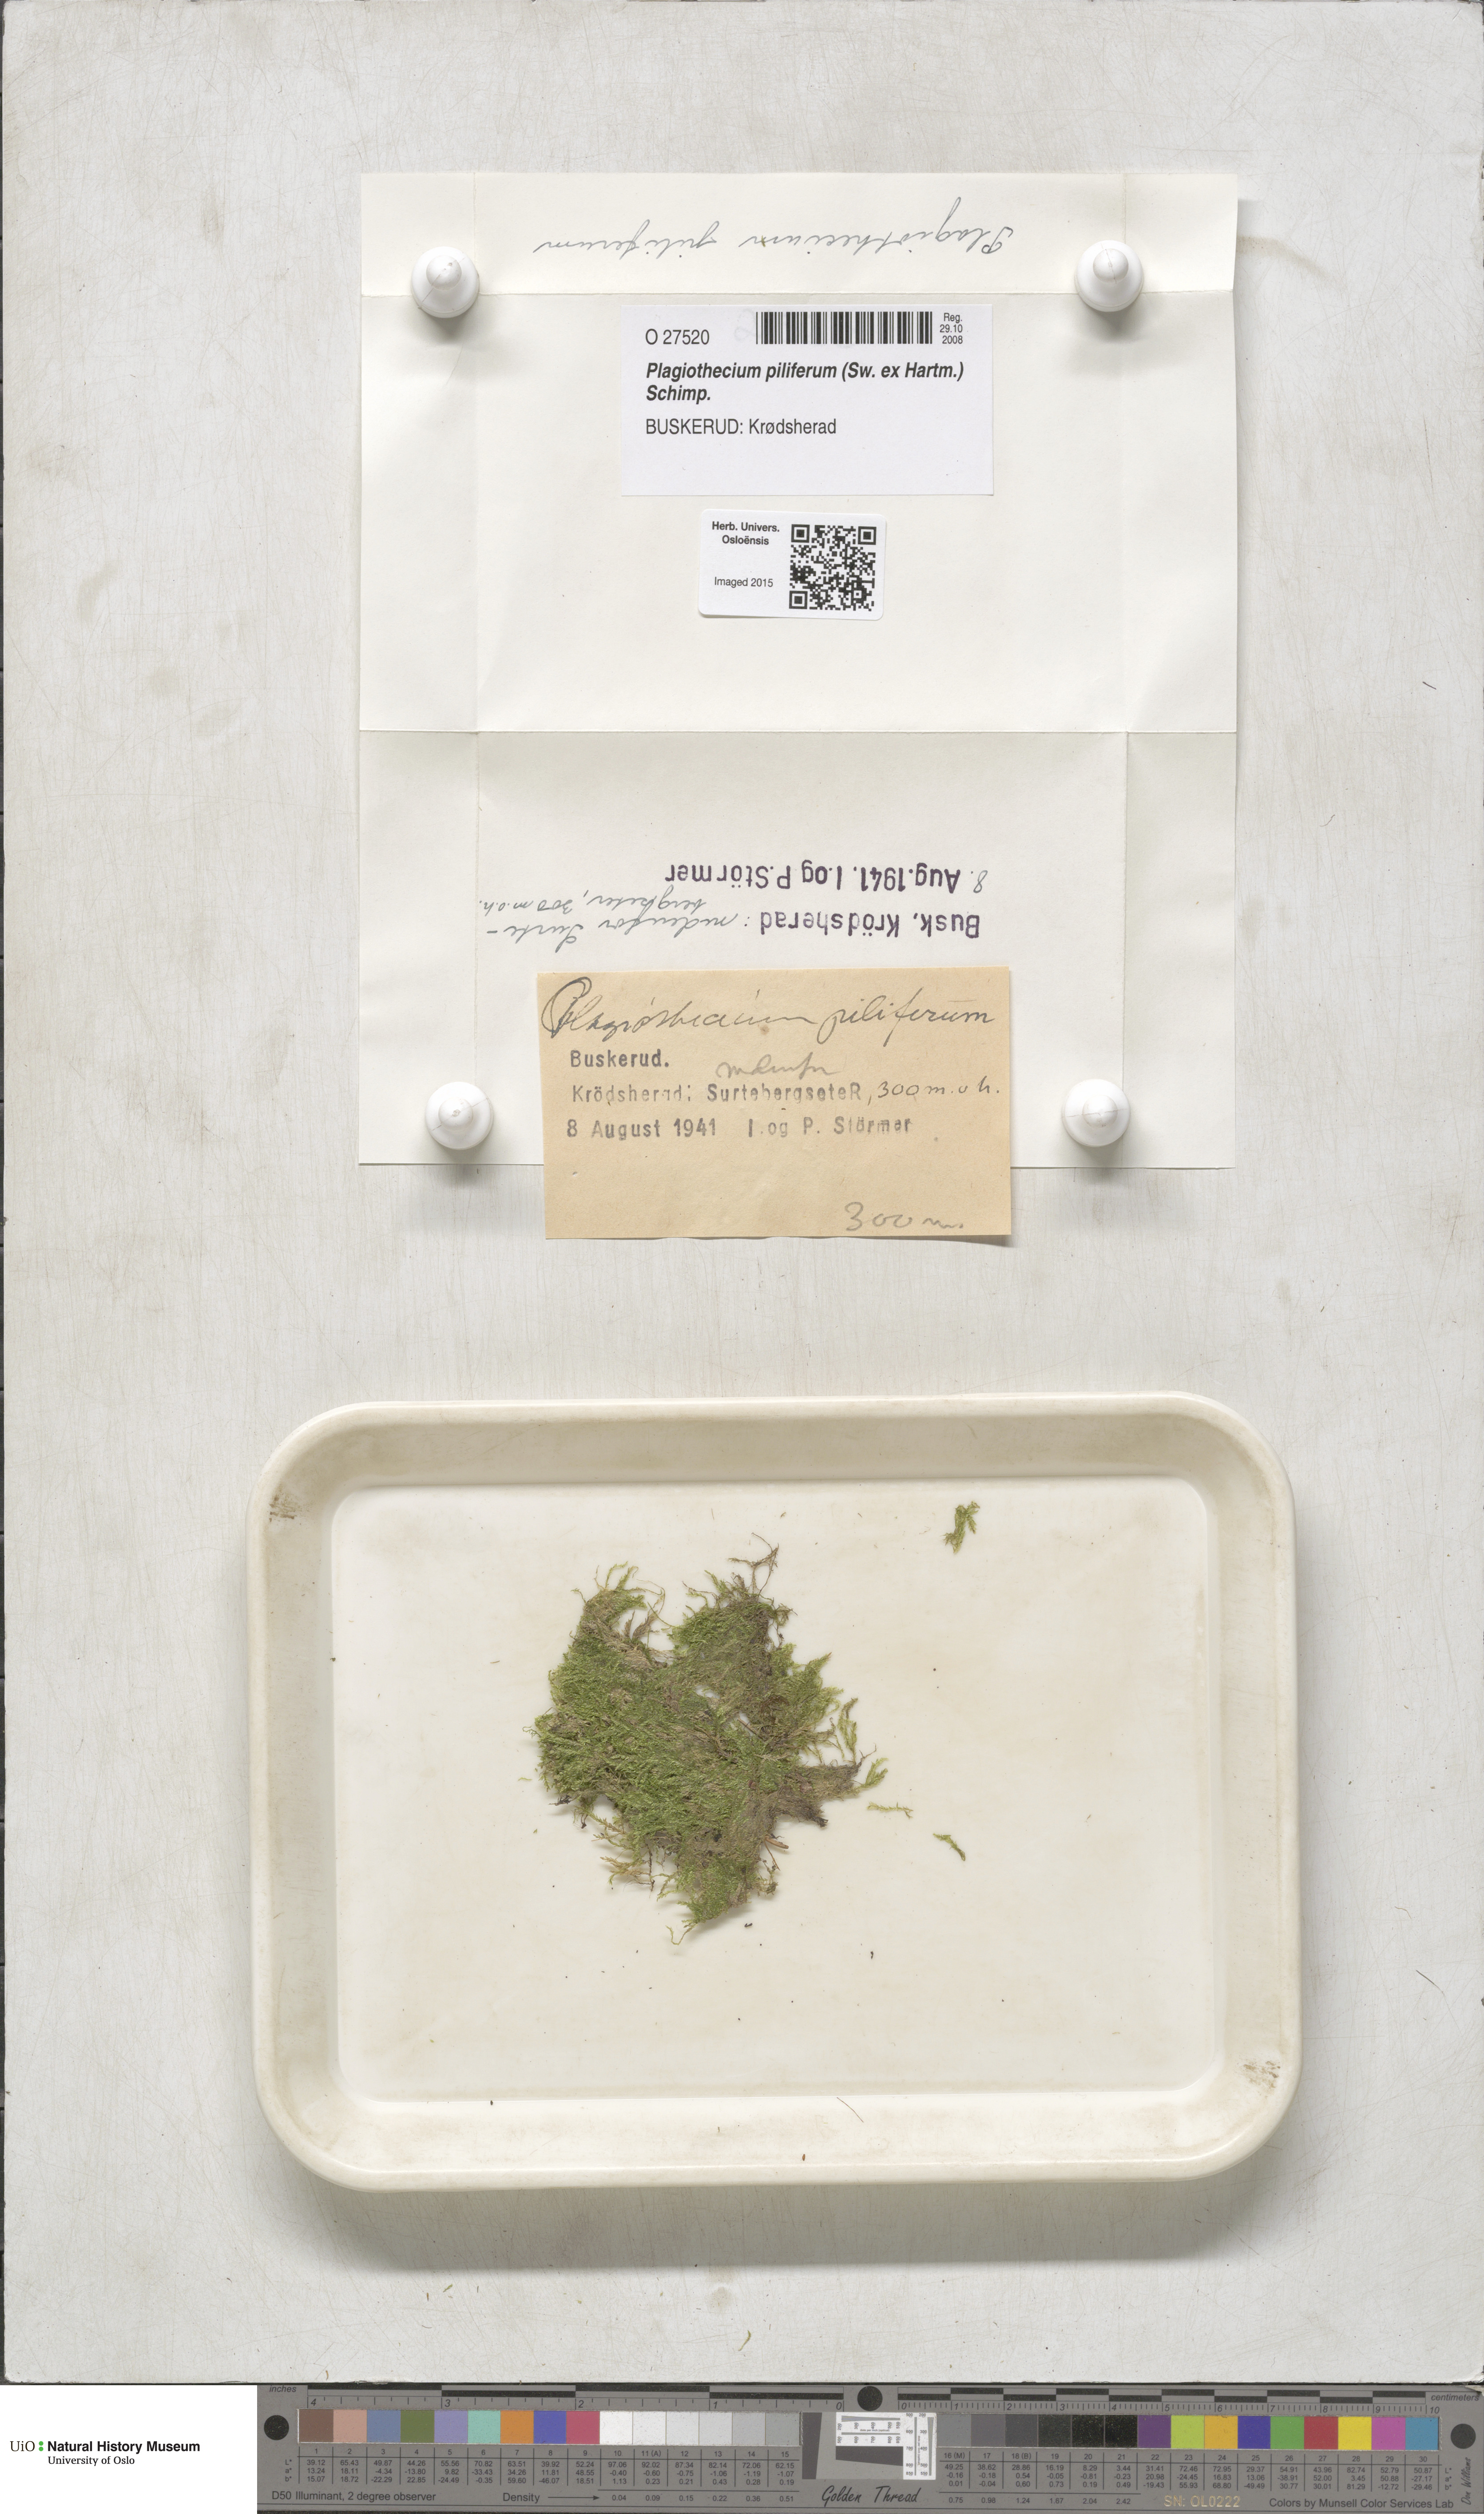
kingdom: Plantae
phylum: Bryophyta
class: Bryopsida
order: Hypnales
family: Plagiotheciaceae
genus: Rectithecium
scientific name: Rectithecium piliferum
